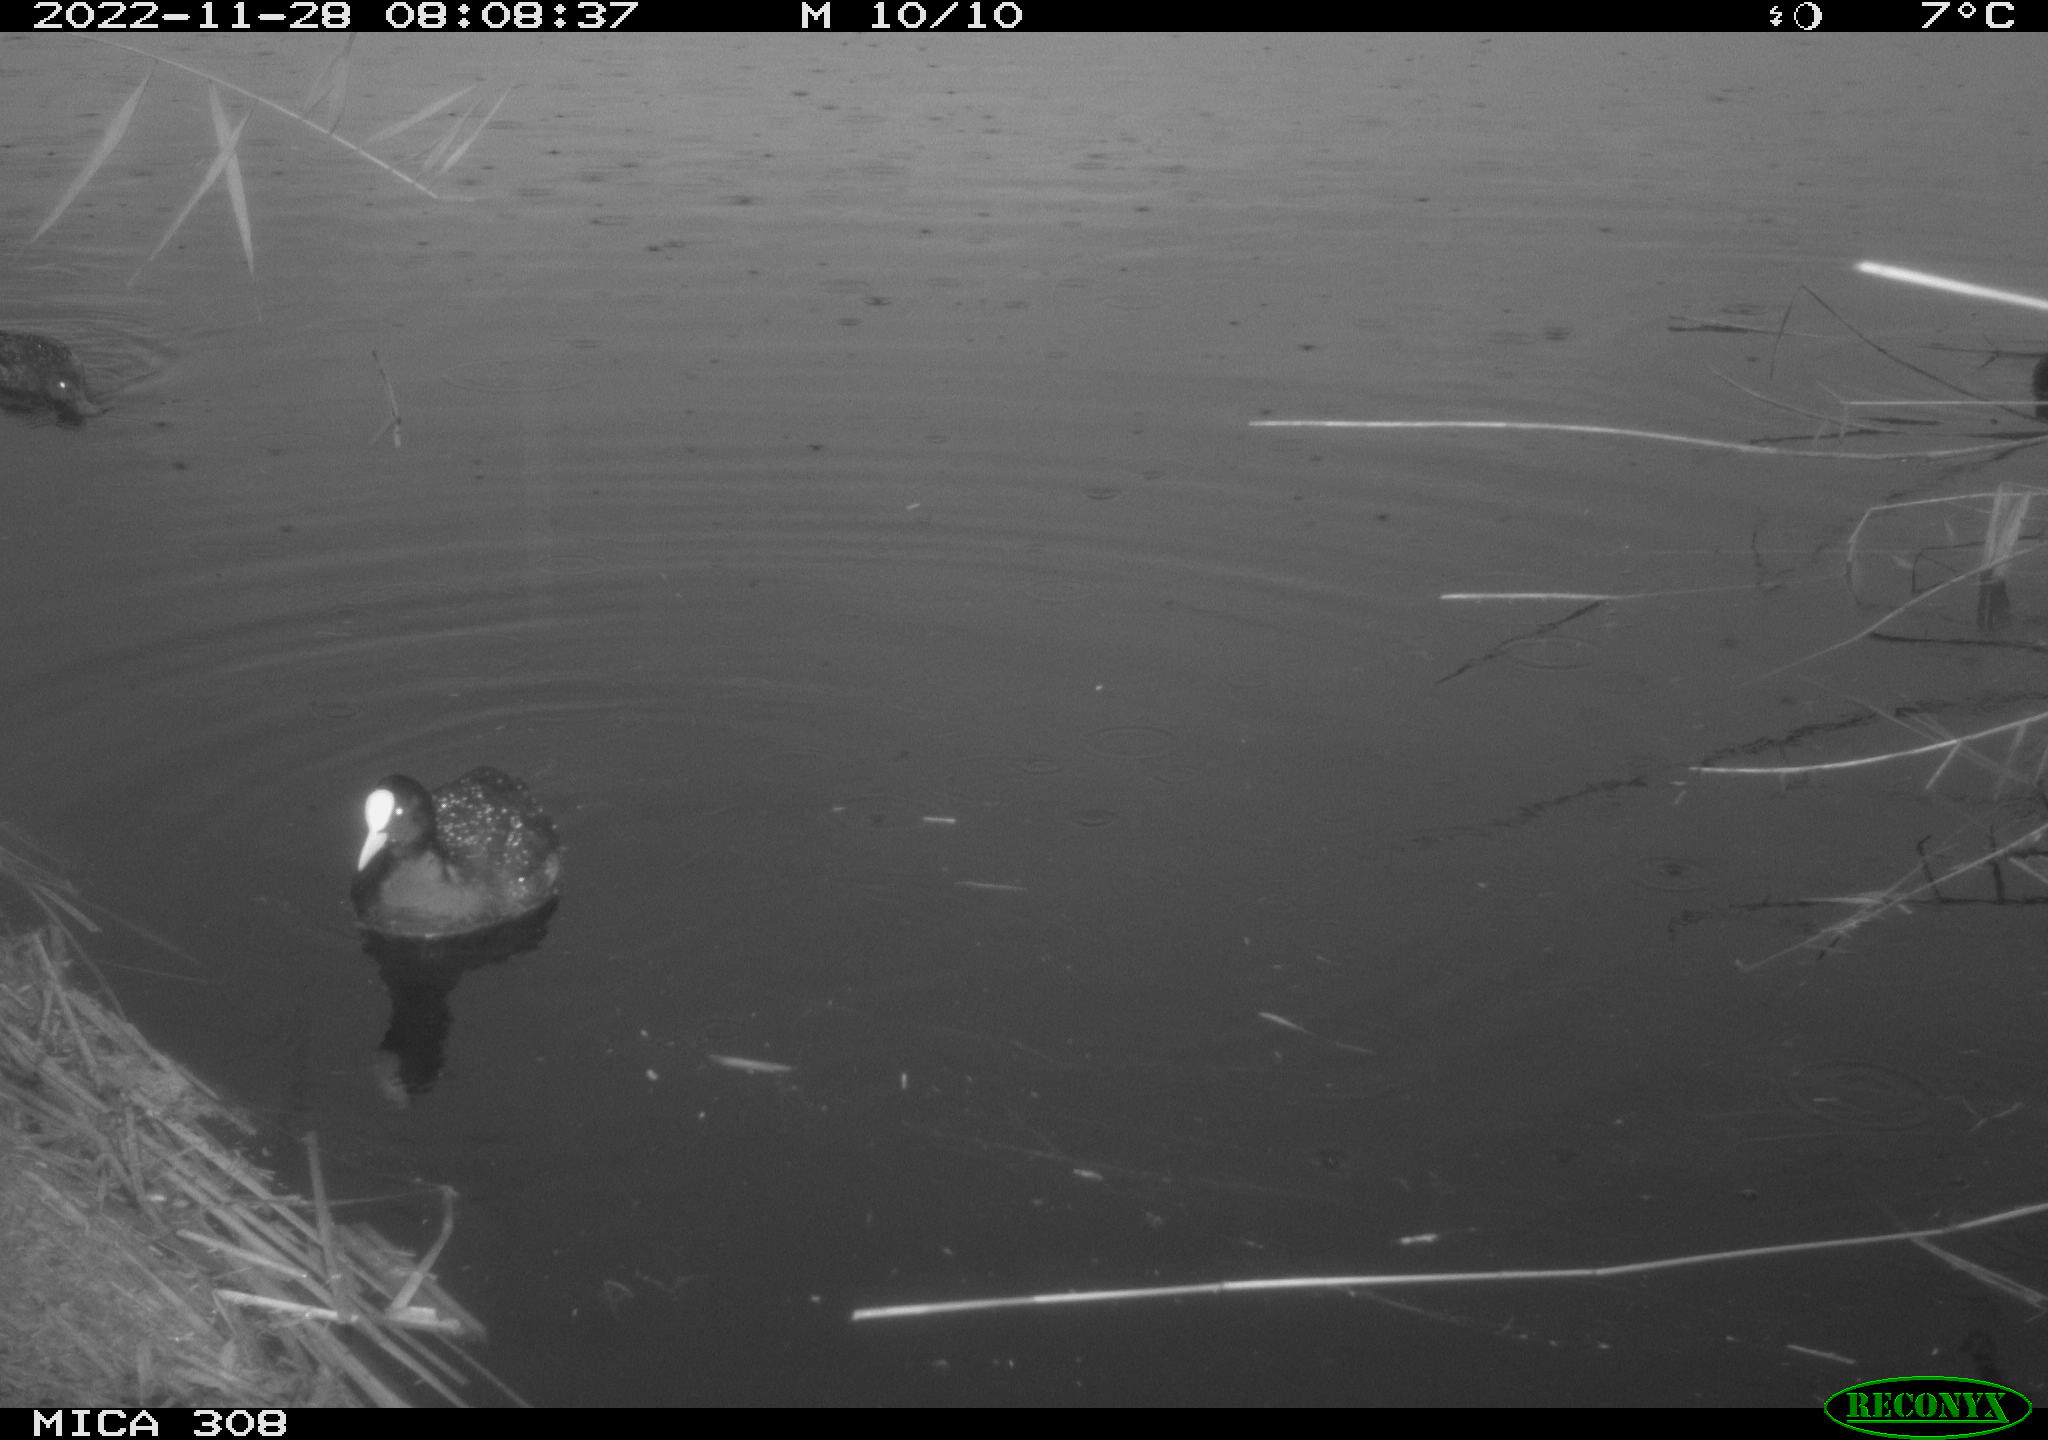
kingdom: Animalia
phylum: Chordata
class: Aves
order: Gruiformes
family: Rallidae
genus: Fulica
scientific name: Fulica atra
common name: Eurasian coot
